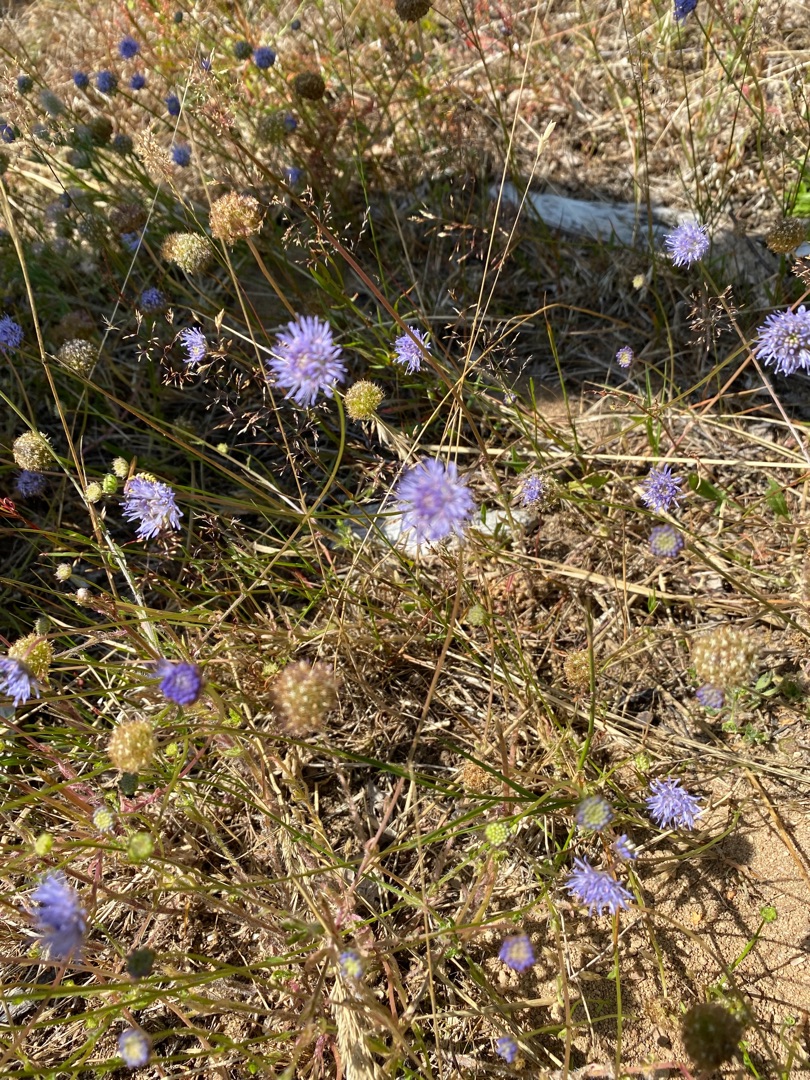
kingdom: Plantae
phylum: Tracheophyta
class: Magnoliopsida
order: Asterales
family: Campanulaceae
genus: Jasione
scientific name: Jasione montana
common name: Blåmunke
